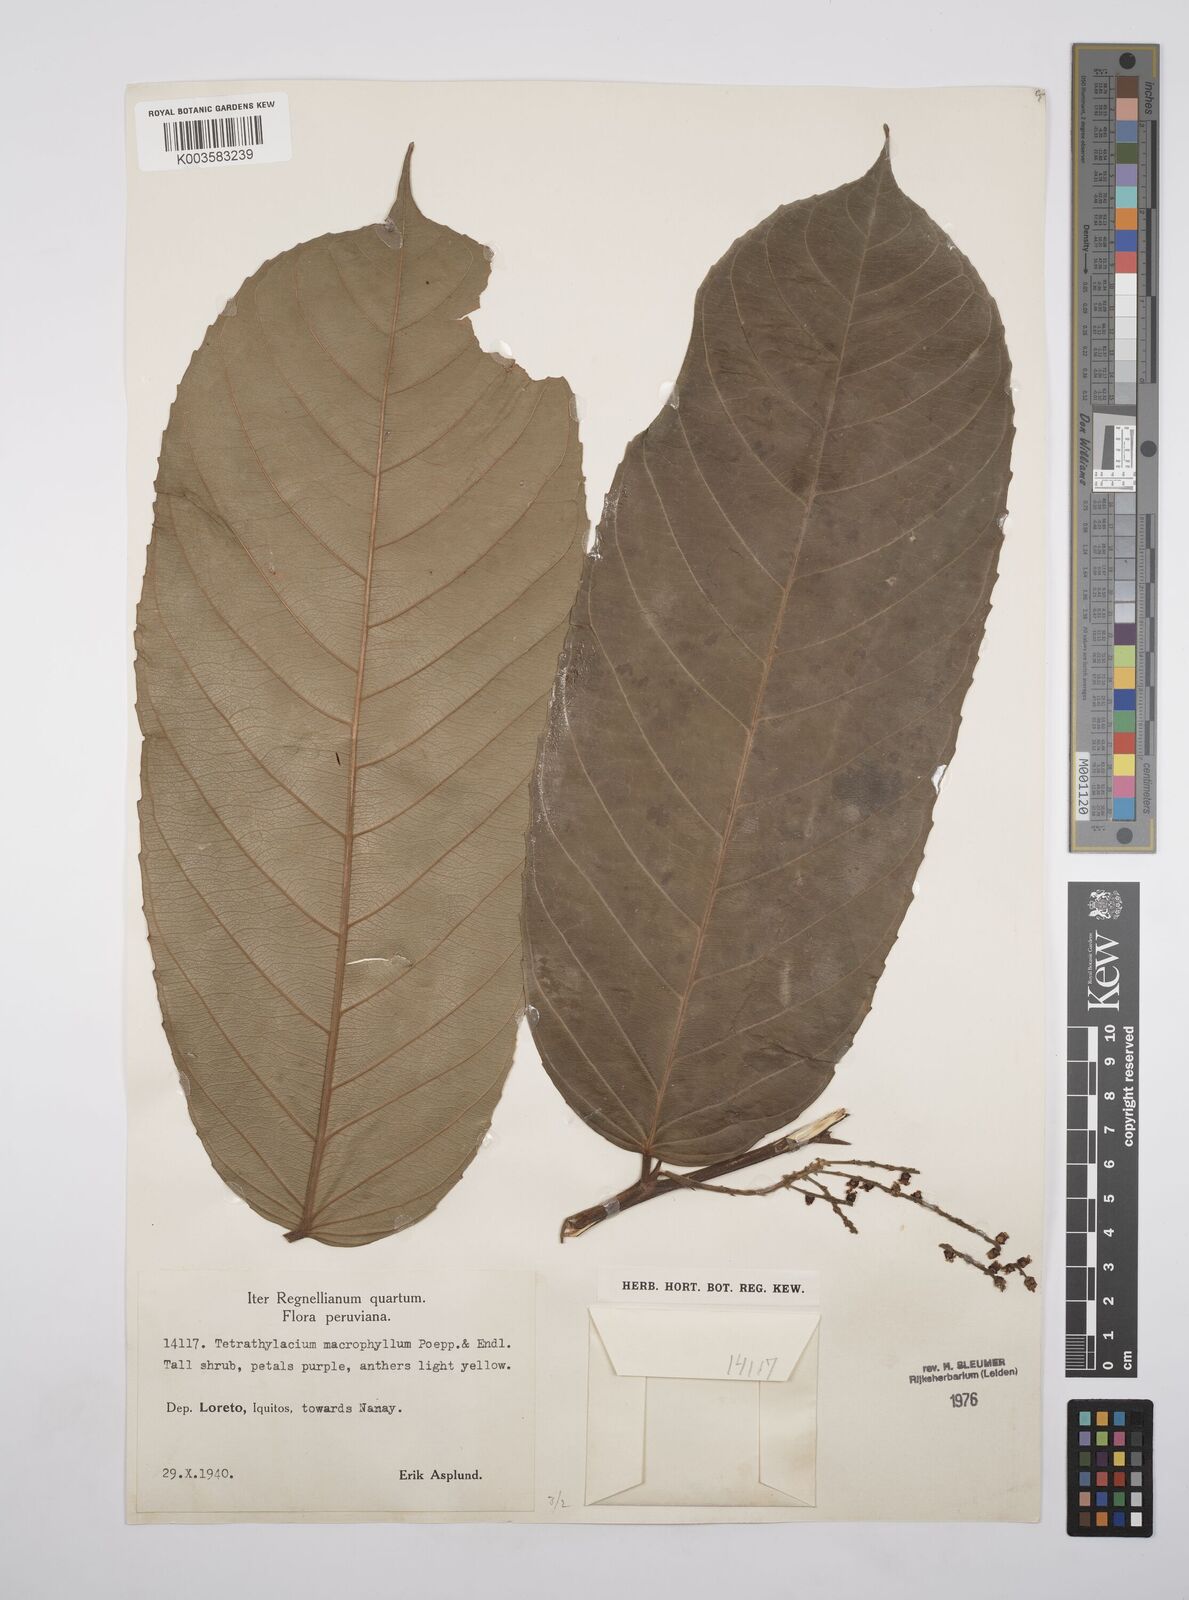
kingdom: Plantae
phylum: Tracheophyta
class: Magnoliopsida
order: Malpighiales
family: Salicaceae
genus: Tetrathylacium
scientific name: Tetrathylacium macrophyllum
